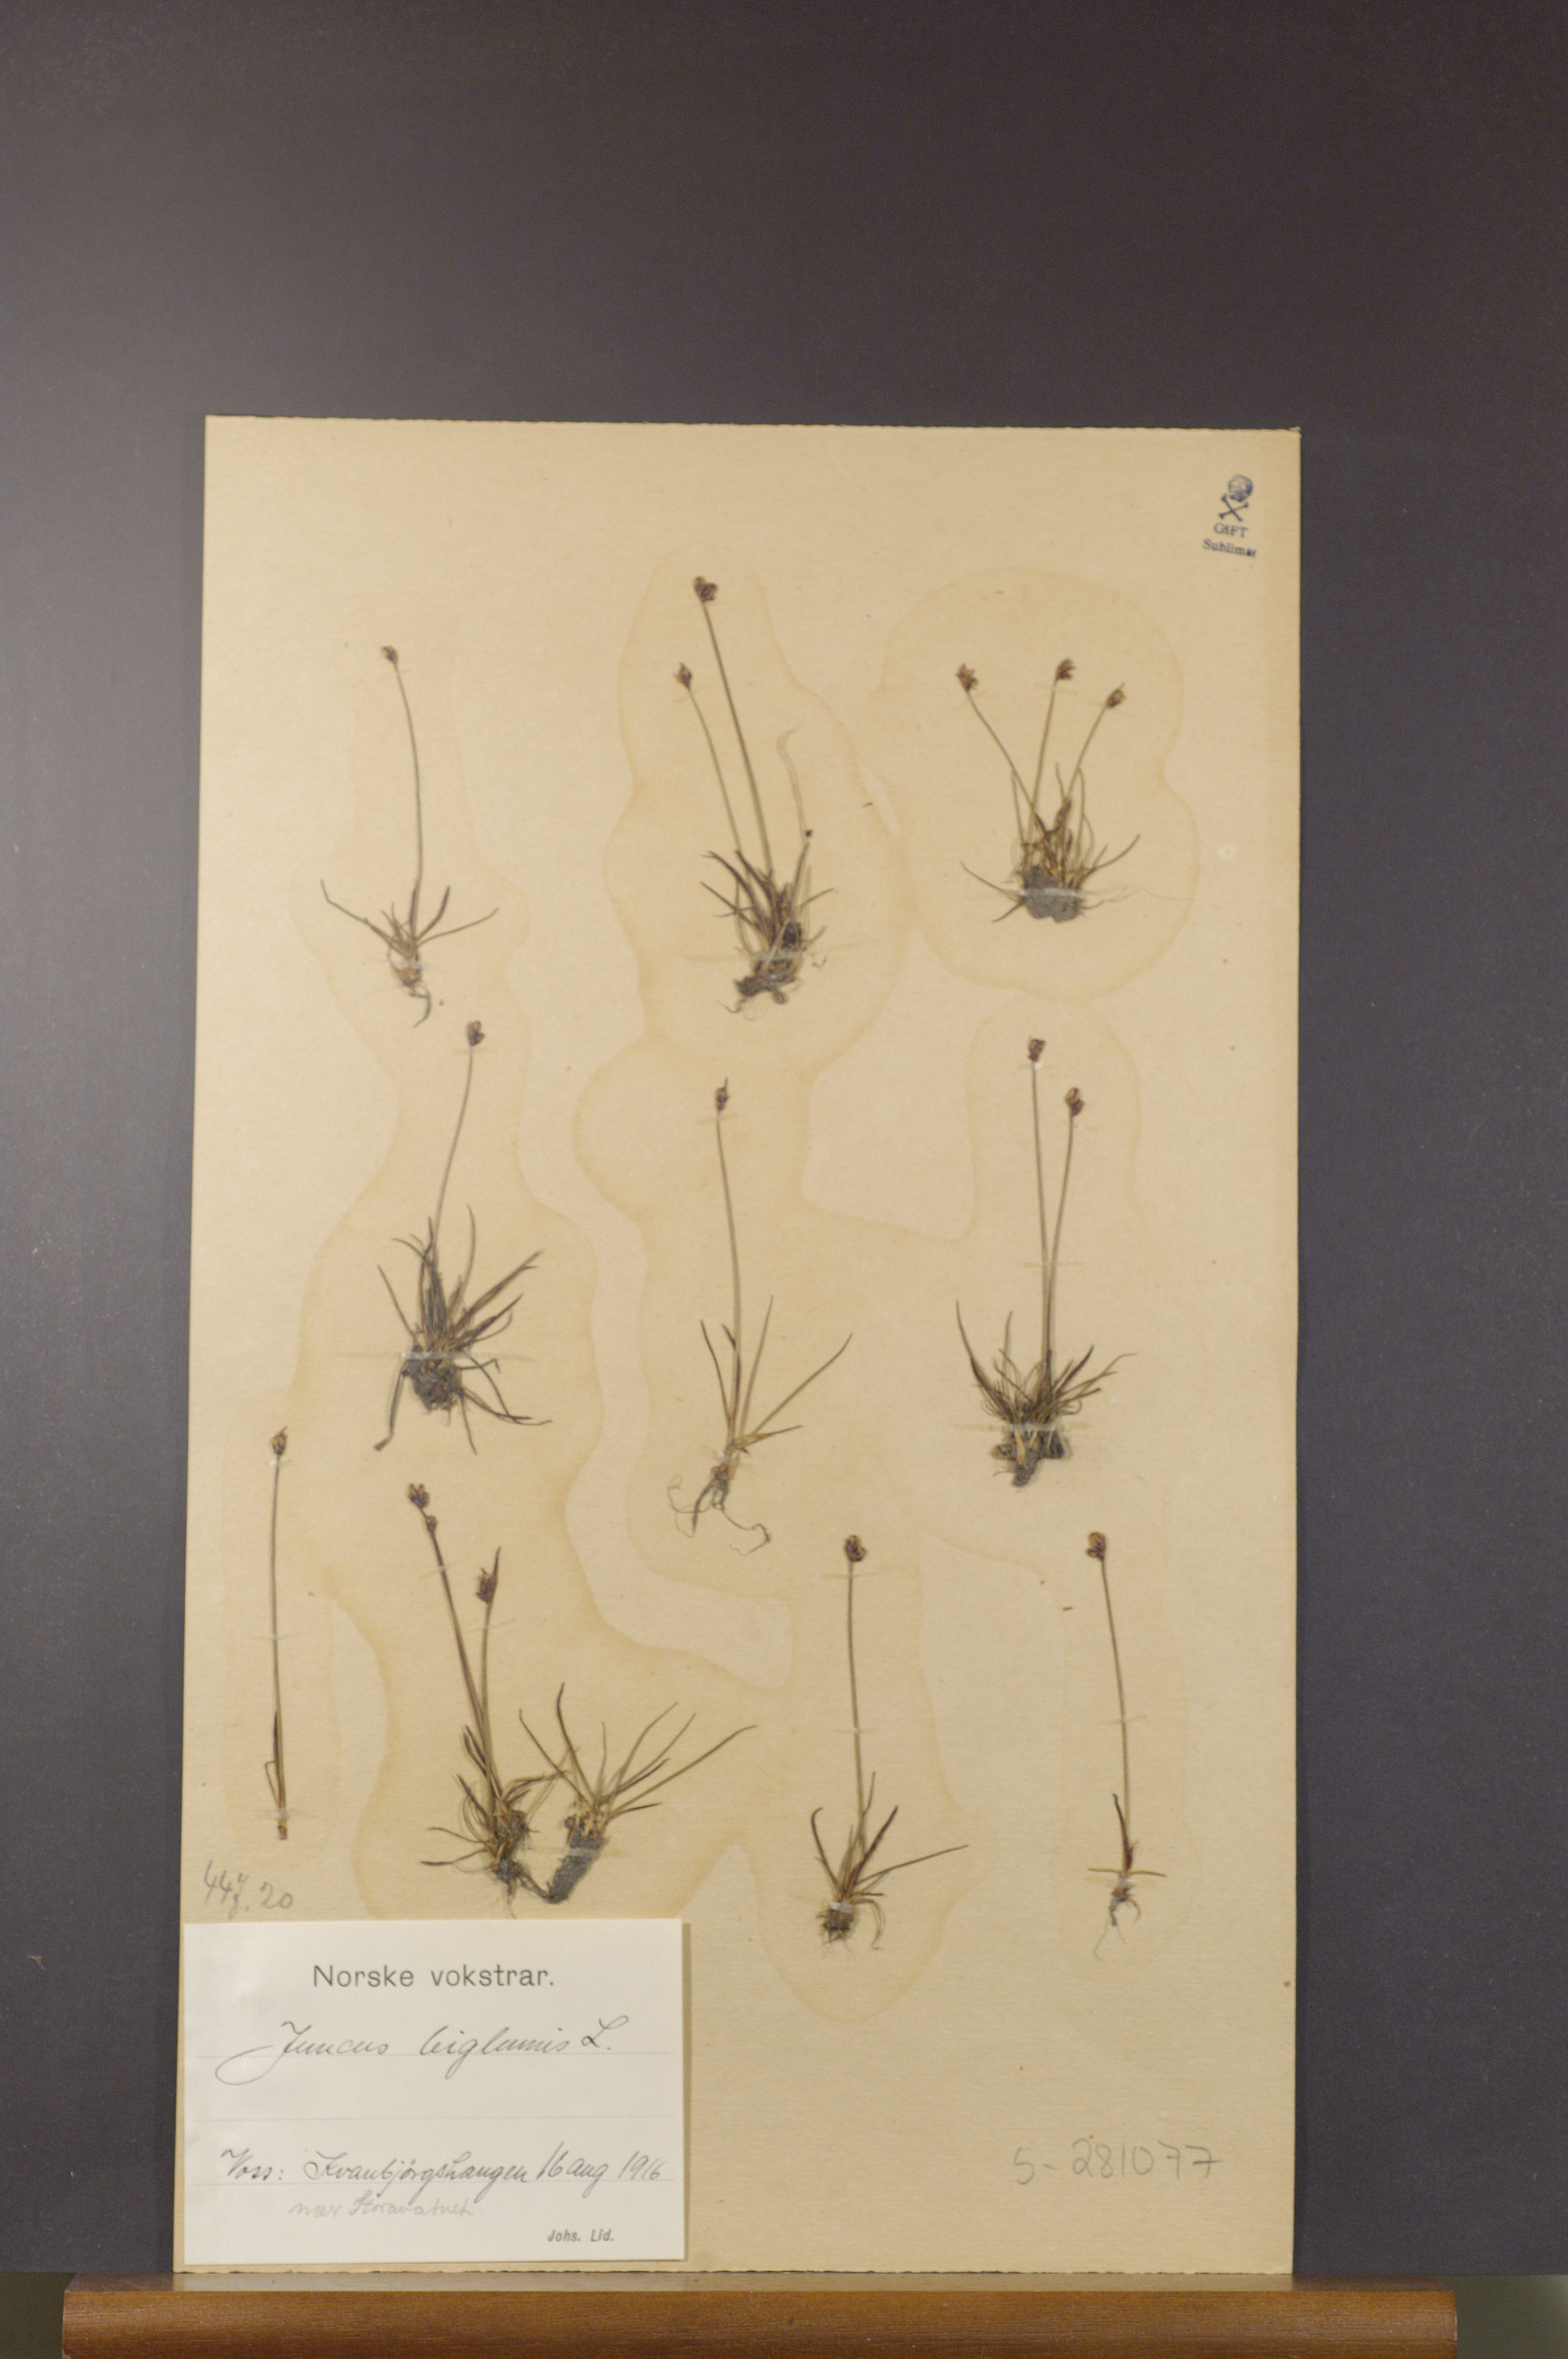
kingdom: Plantae
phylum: Tracheophyta
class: Liliopsida
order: Poales
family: Juncaceae
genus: Juncus
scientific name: Juncus biglumis
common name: Two-flowered rush
